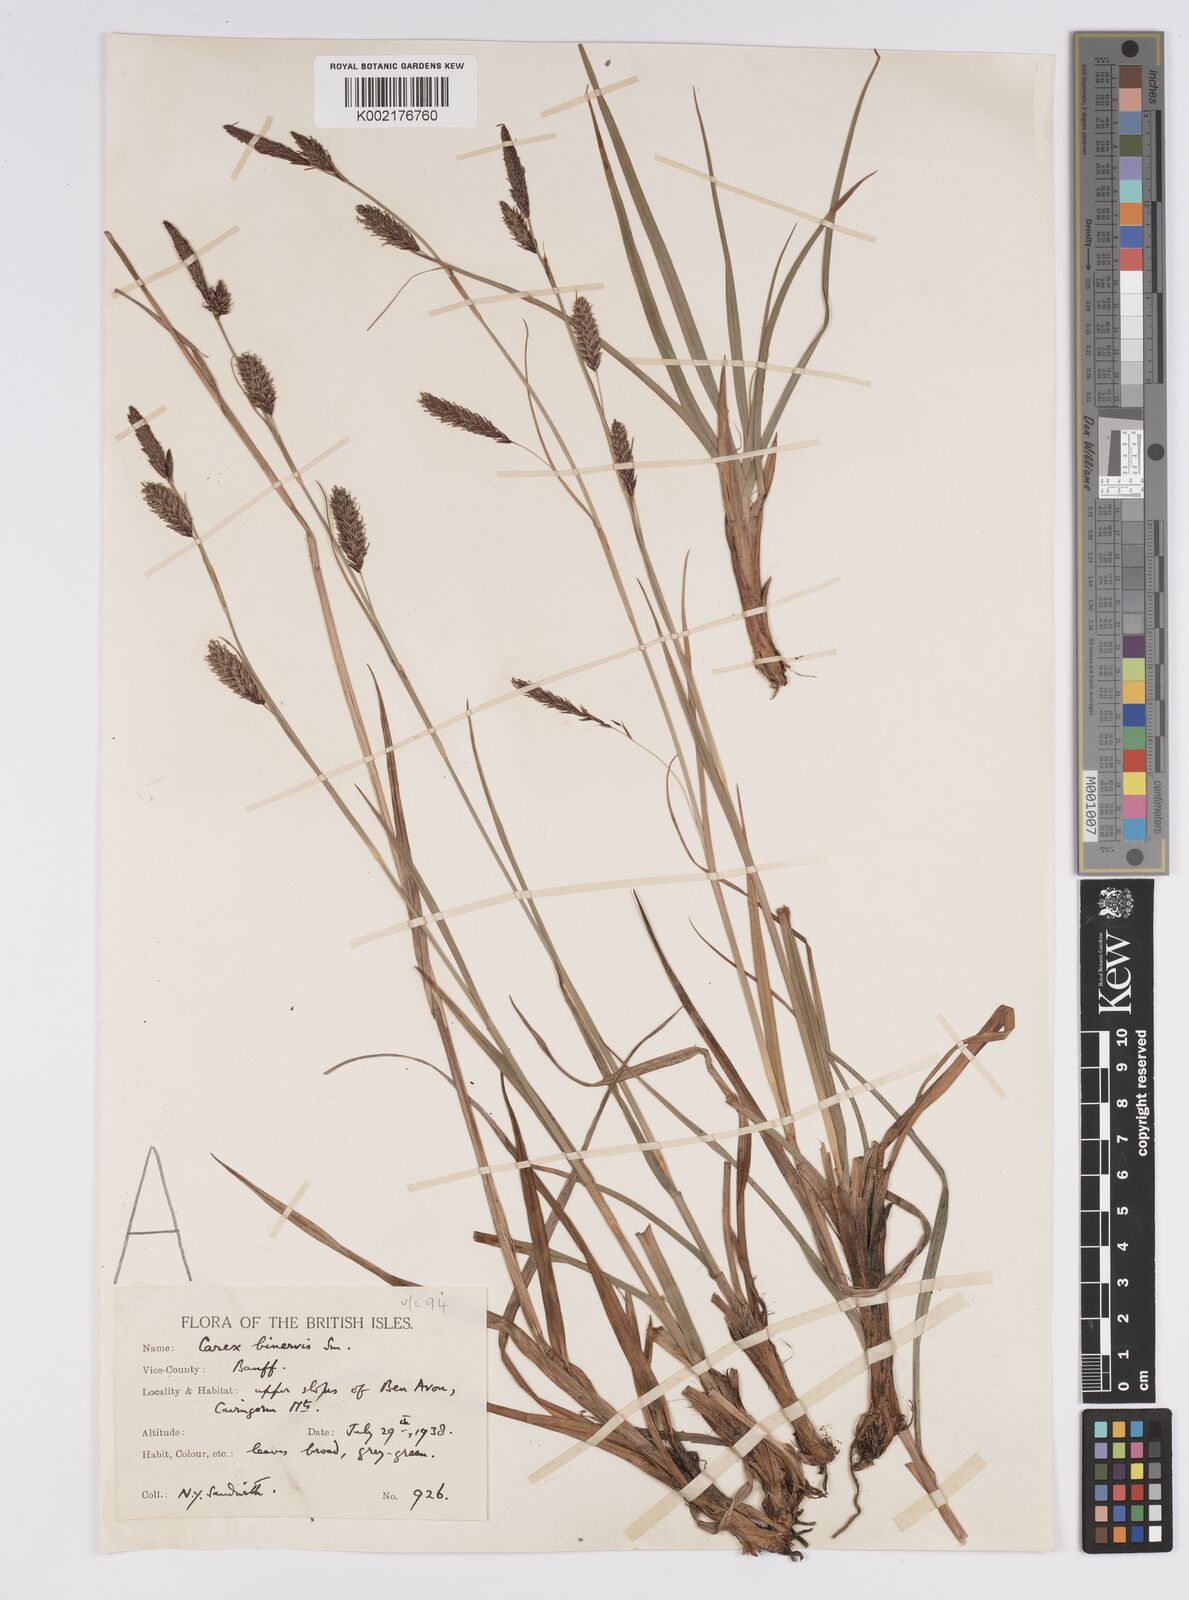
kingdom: Plantae
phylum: Tracheophyta
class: Liliopsida
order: Poales
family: Cyperaceae
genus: Carex
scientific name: Carex binervis
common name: Green-ribbed sedge
